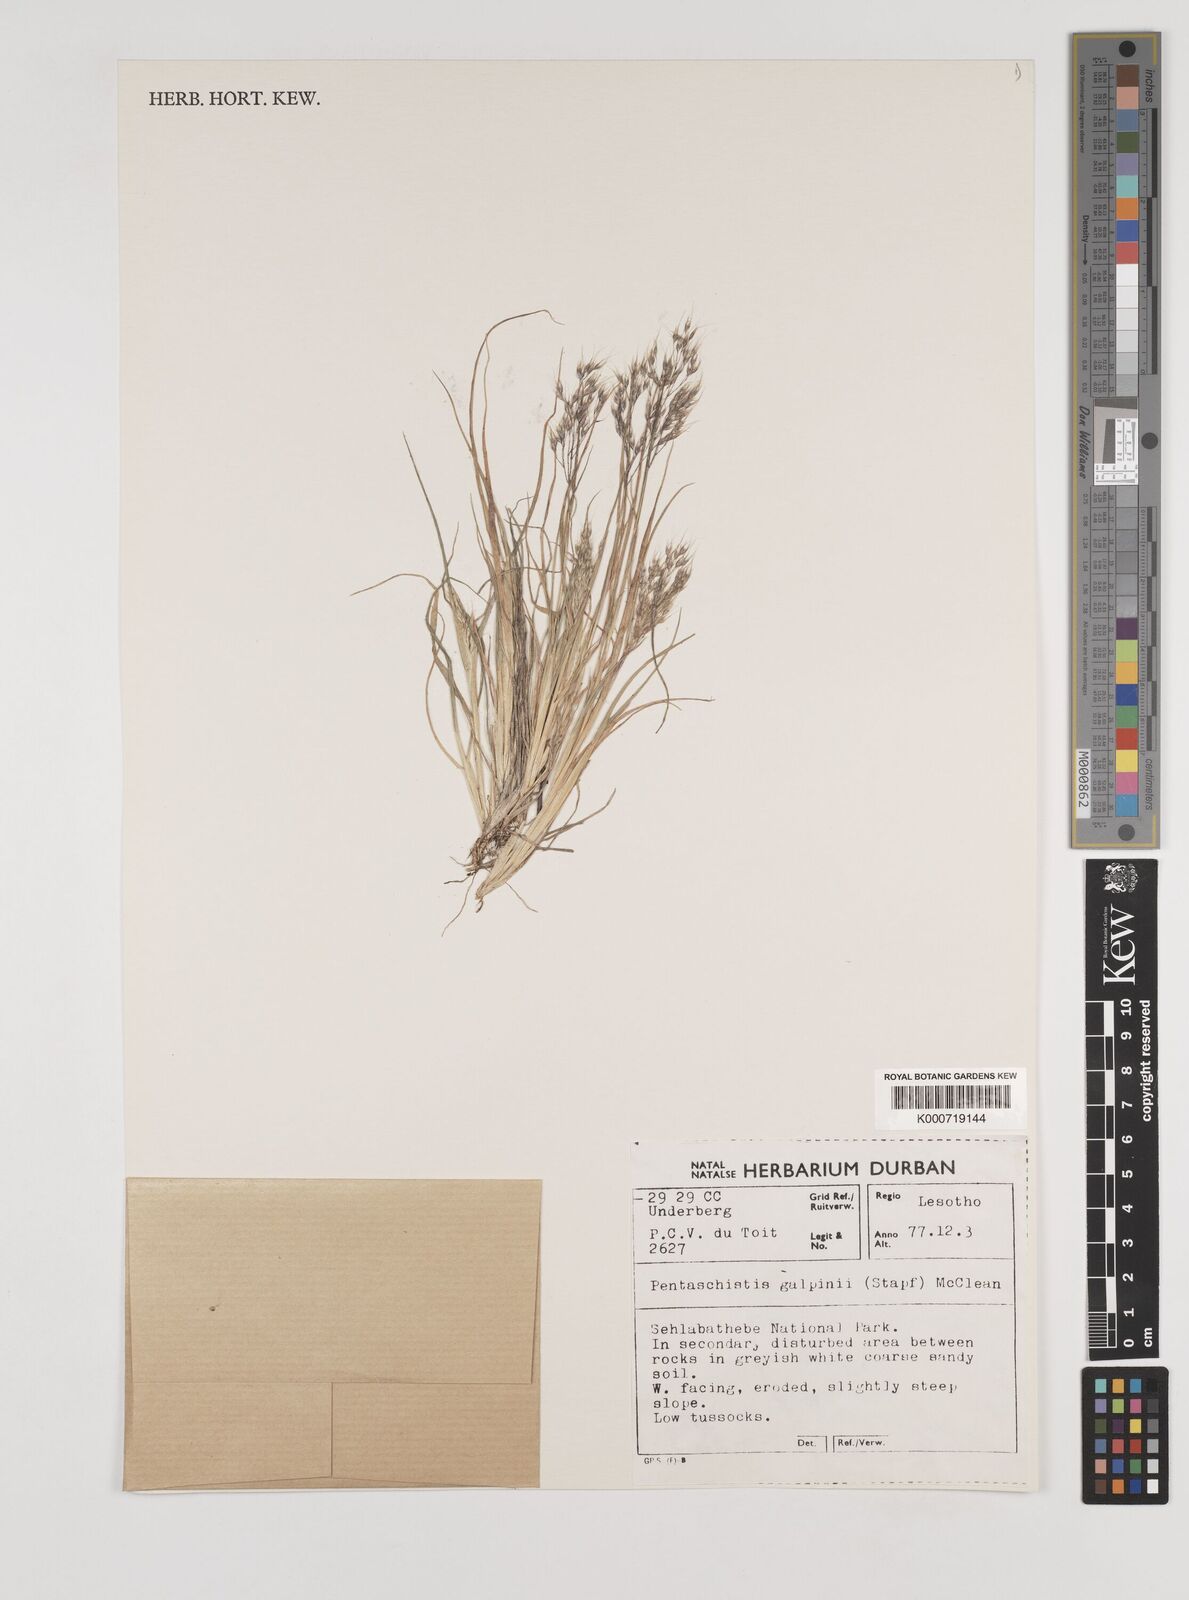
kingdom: Plantae
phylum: Tracheophyta
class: Liliopsida
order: Poales
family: Poaceae
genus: Pentameris
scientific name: Pentameris galpinii
